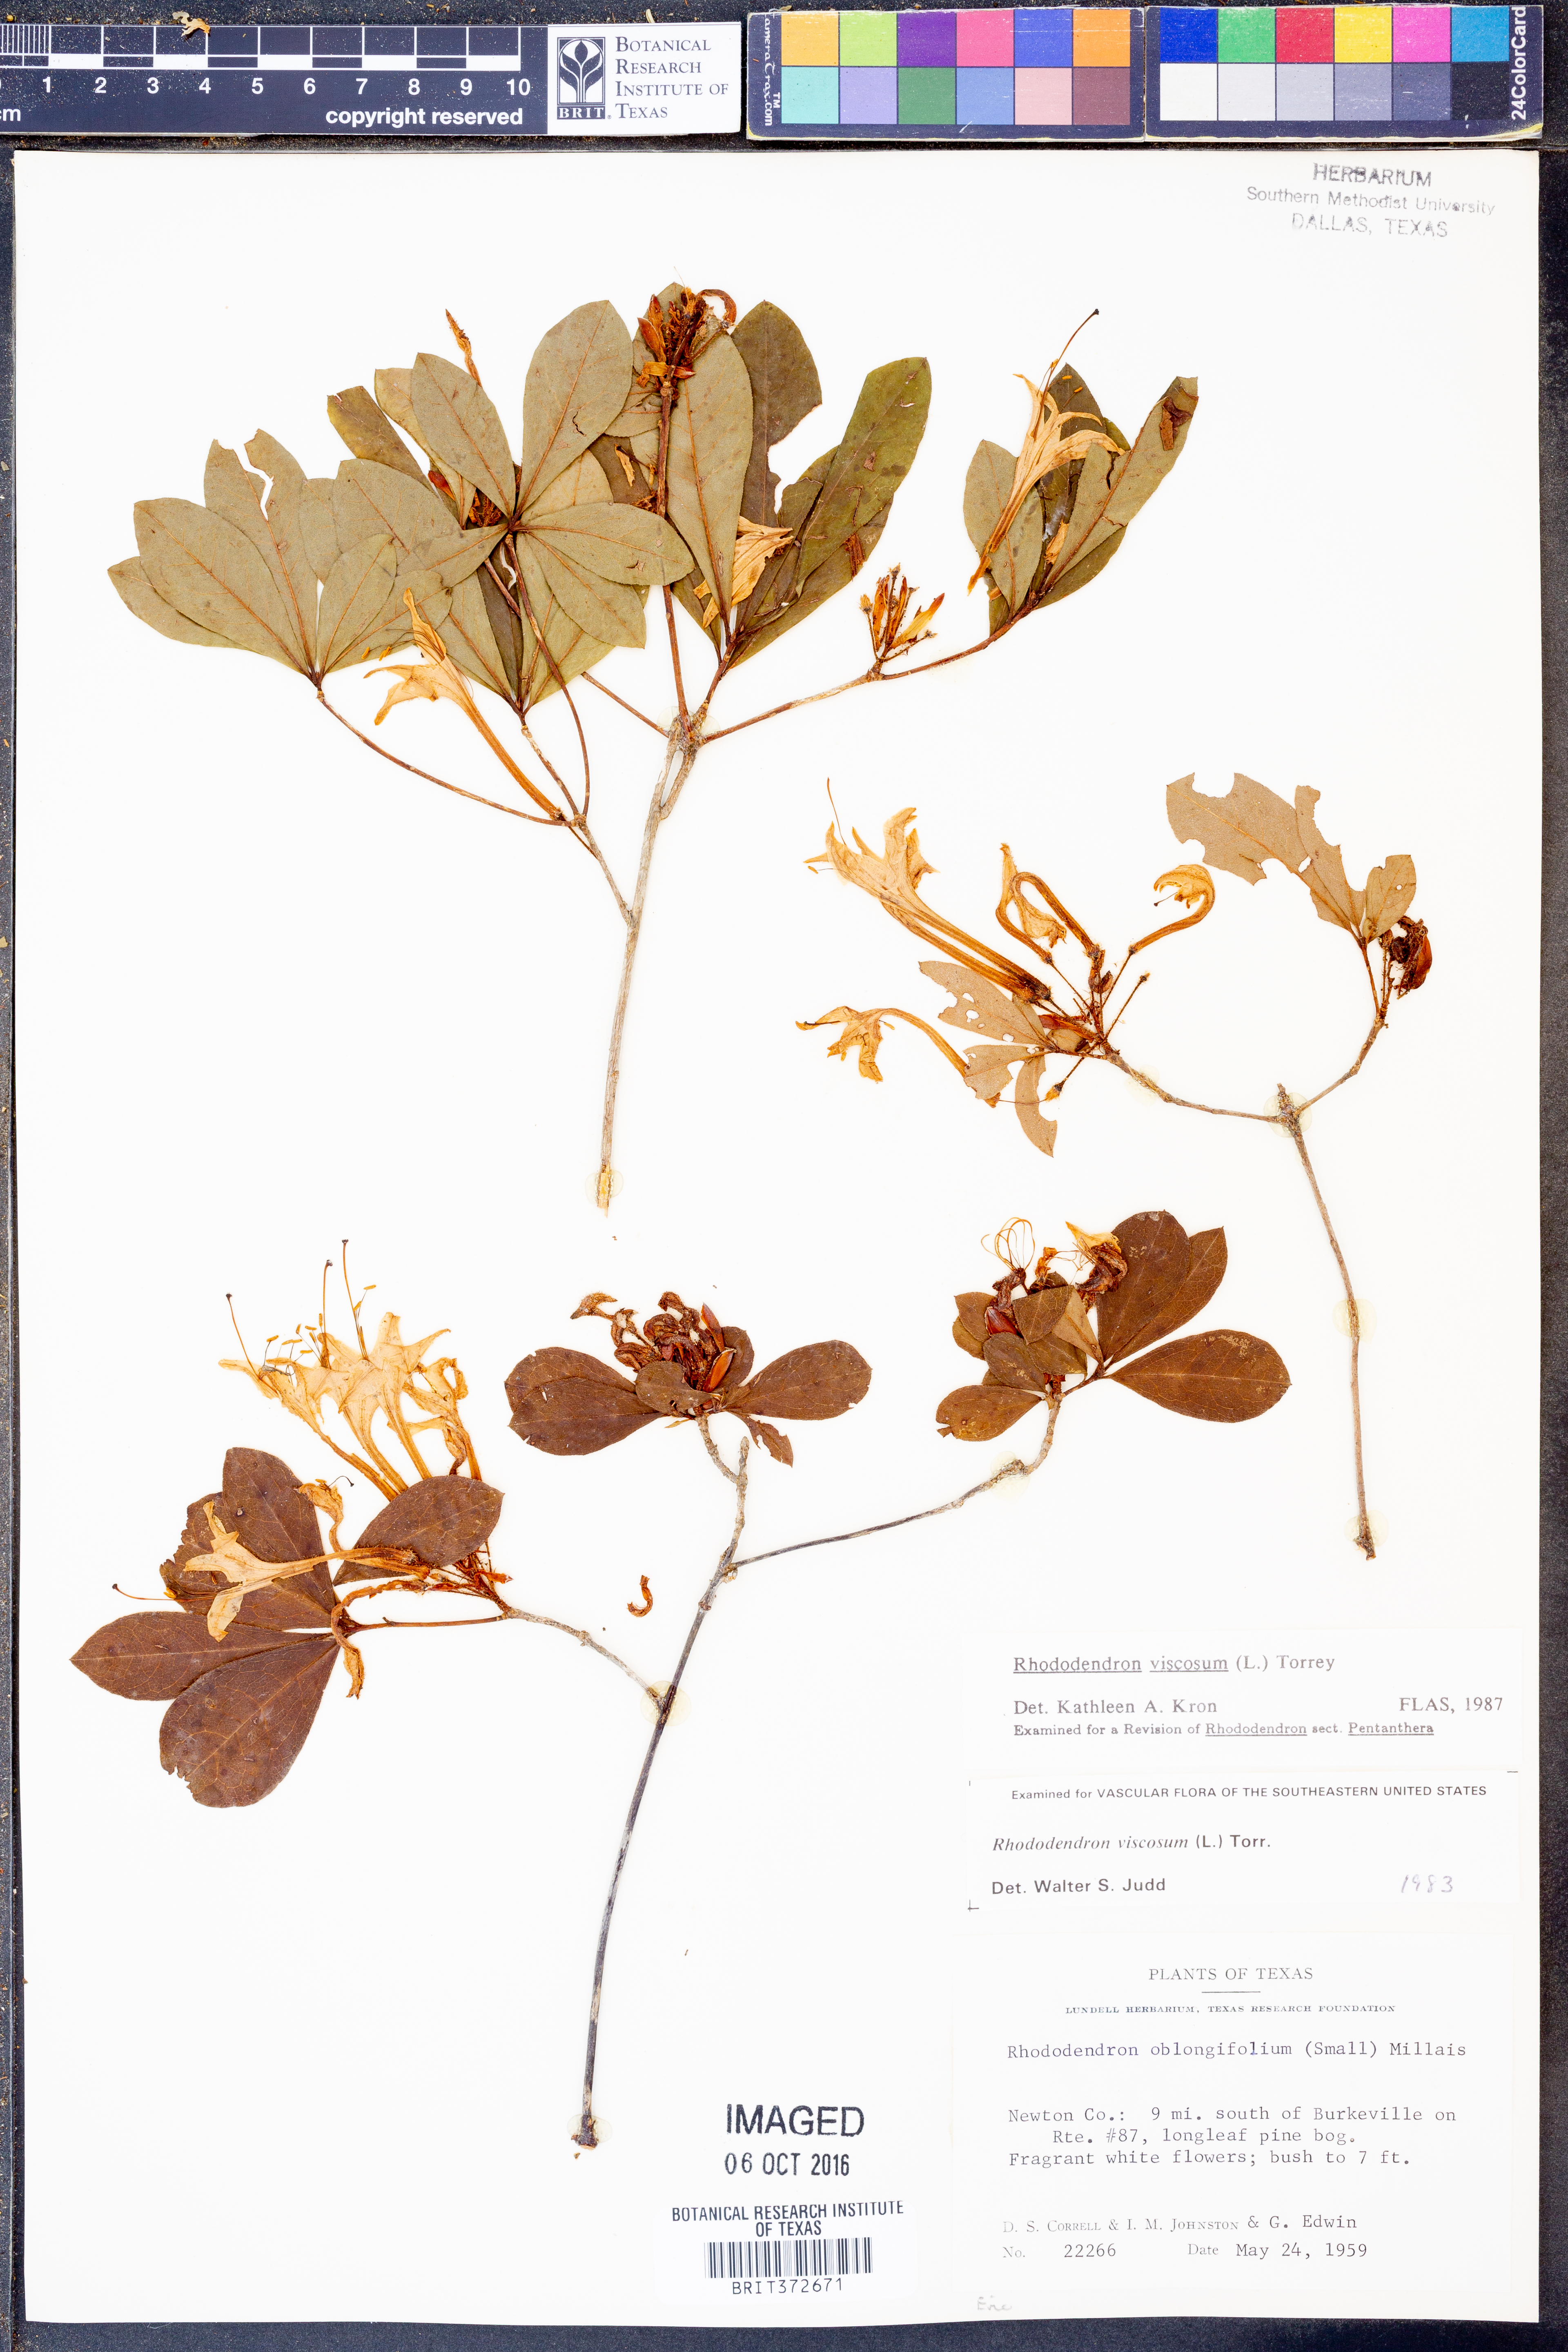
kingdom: Plantae
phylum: Tracheophyta
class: Magnoliopsida
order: Ericales
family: Ericaceae
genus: Rhododendron
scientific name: Rhododendron viscosum
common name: Clammy azalea
